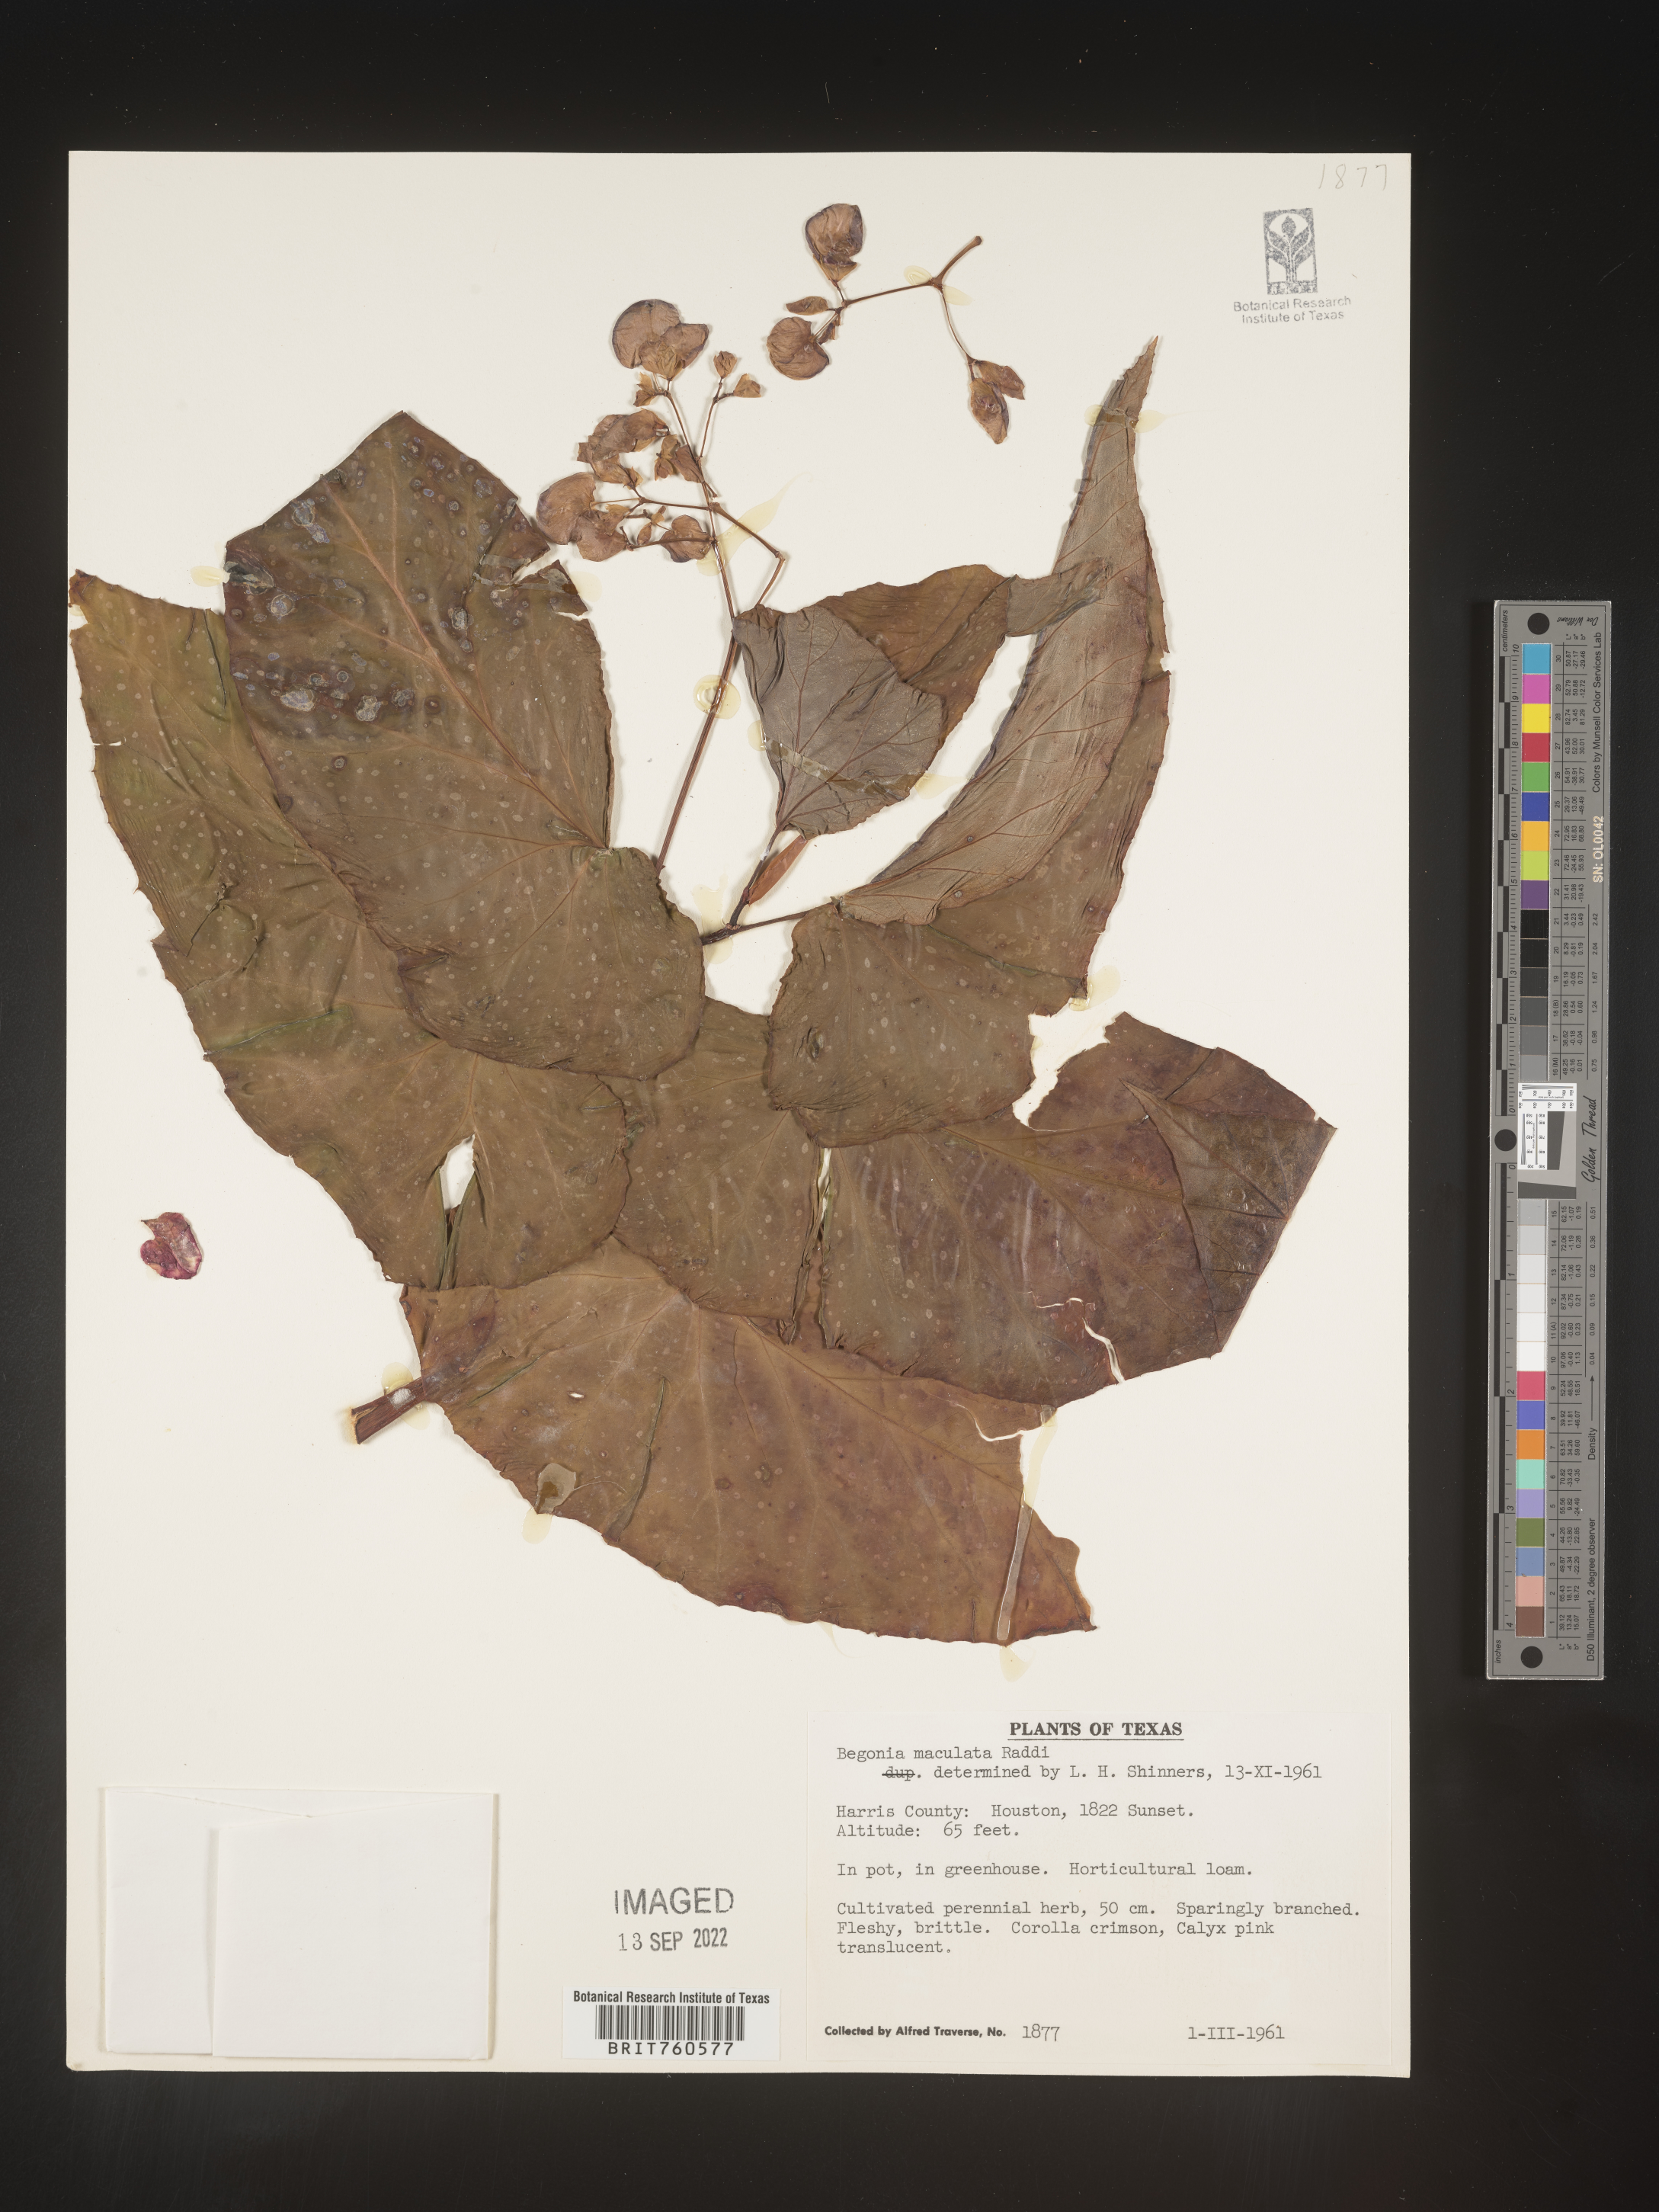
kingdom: Plantae
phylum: Tracheophyta
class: Magnoliopsida
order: Cucurbitales
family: Begoniaceae
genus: Begonia
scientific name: Begonia
